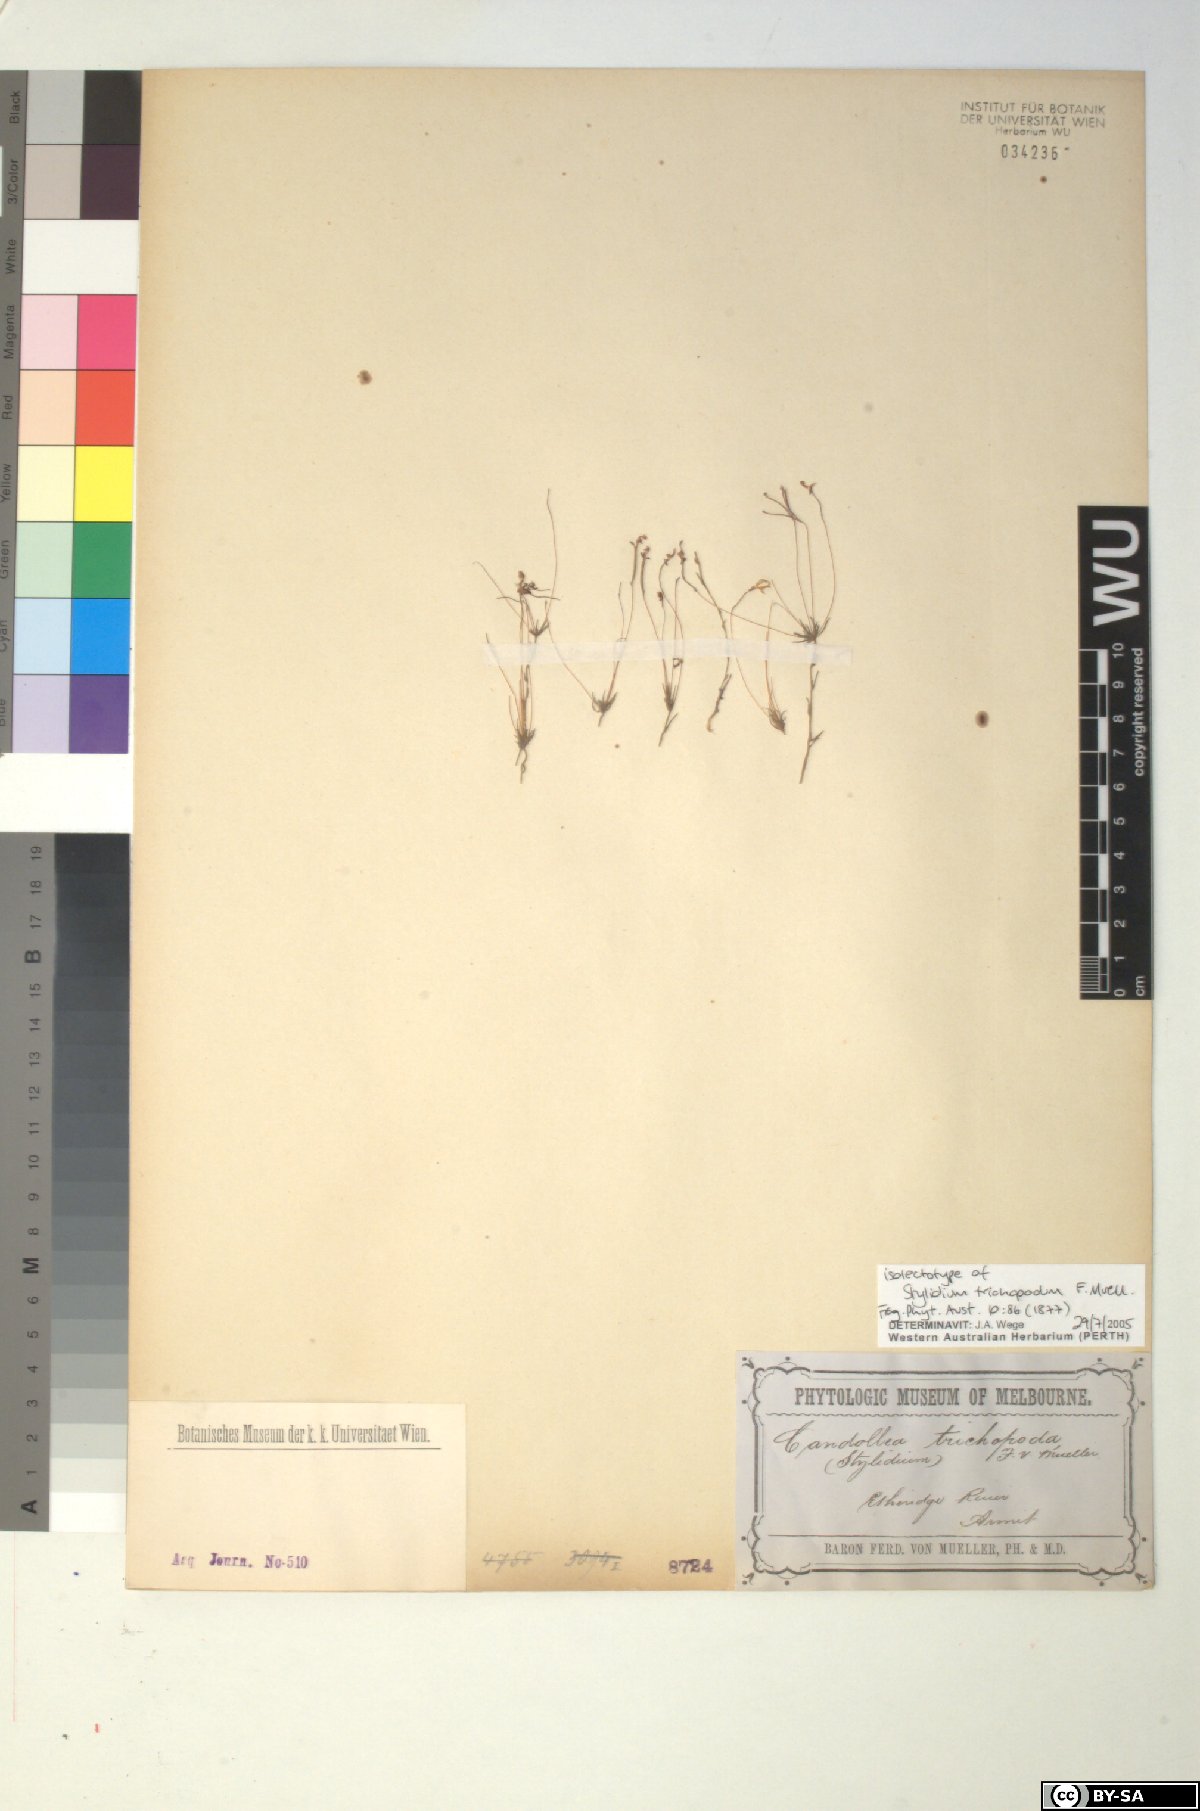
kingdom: Plantae
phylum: Tracheophyta
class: Magnoliopsida
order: Asterales
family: Stylidiaceae
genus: Stylidium
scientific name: Stylidium trichopodum
